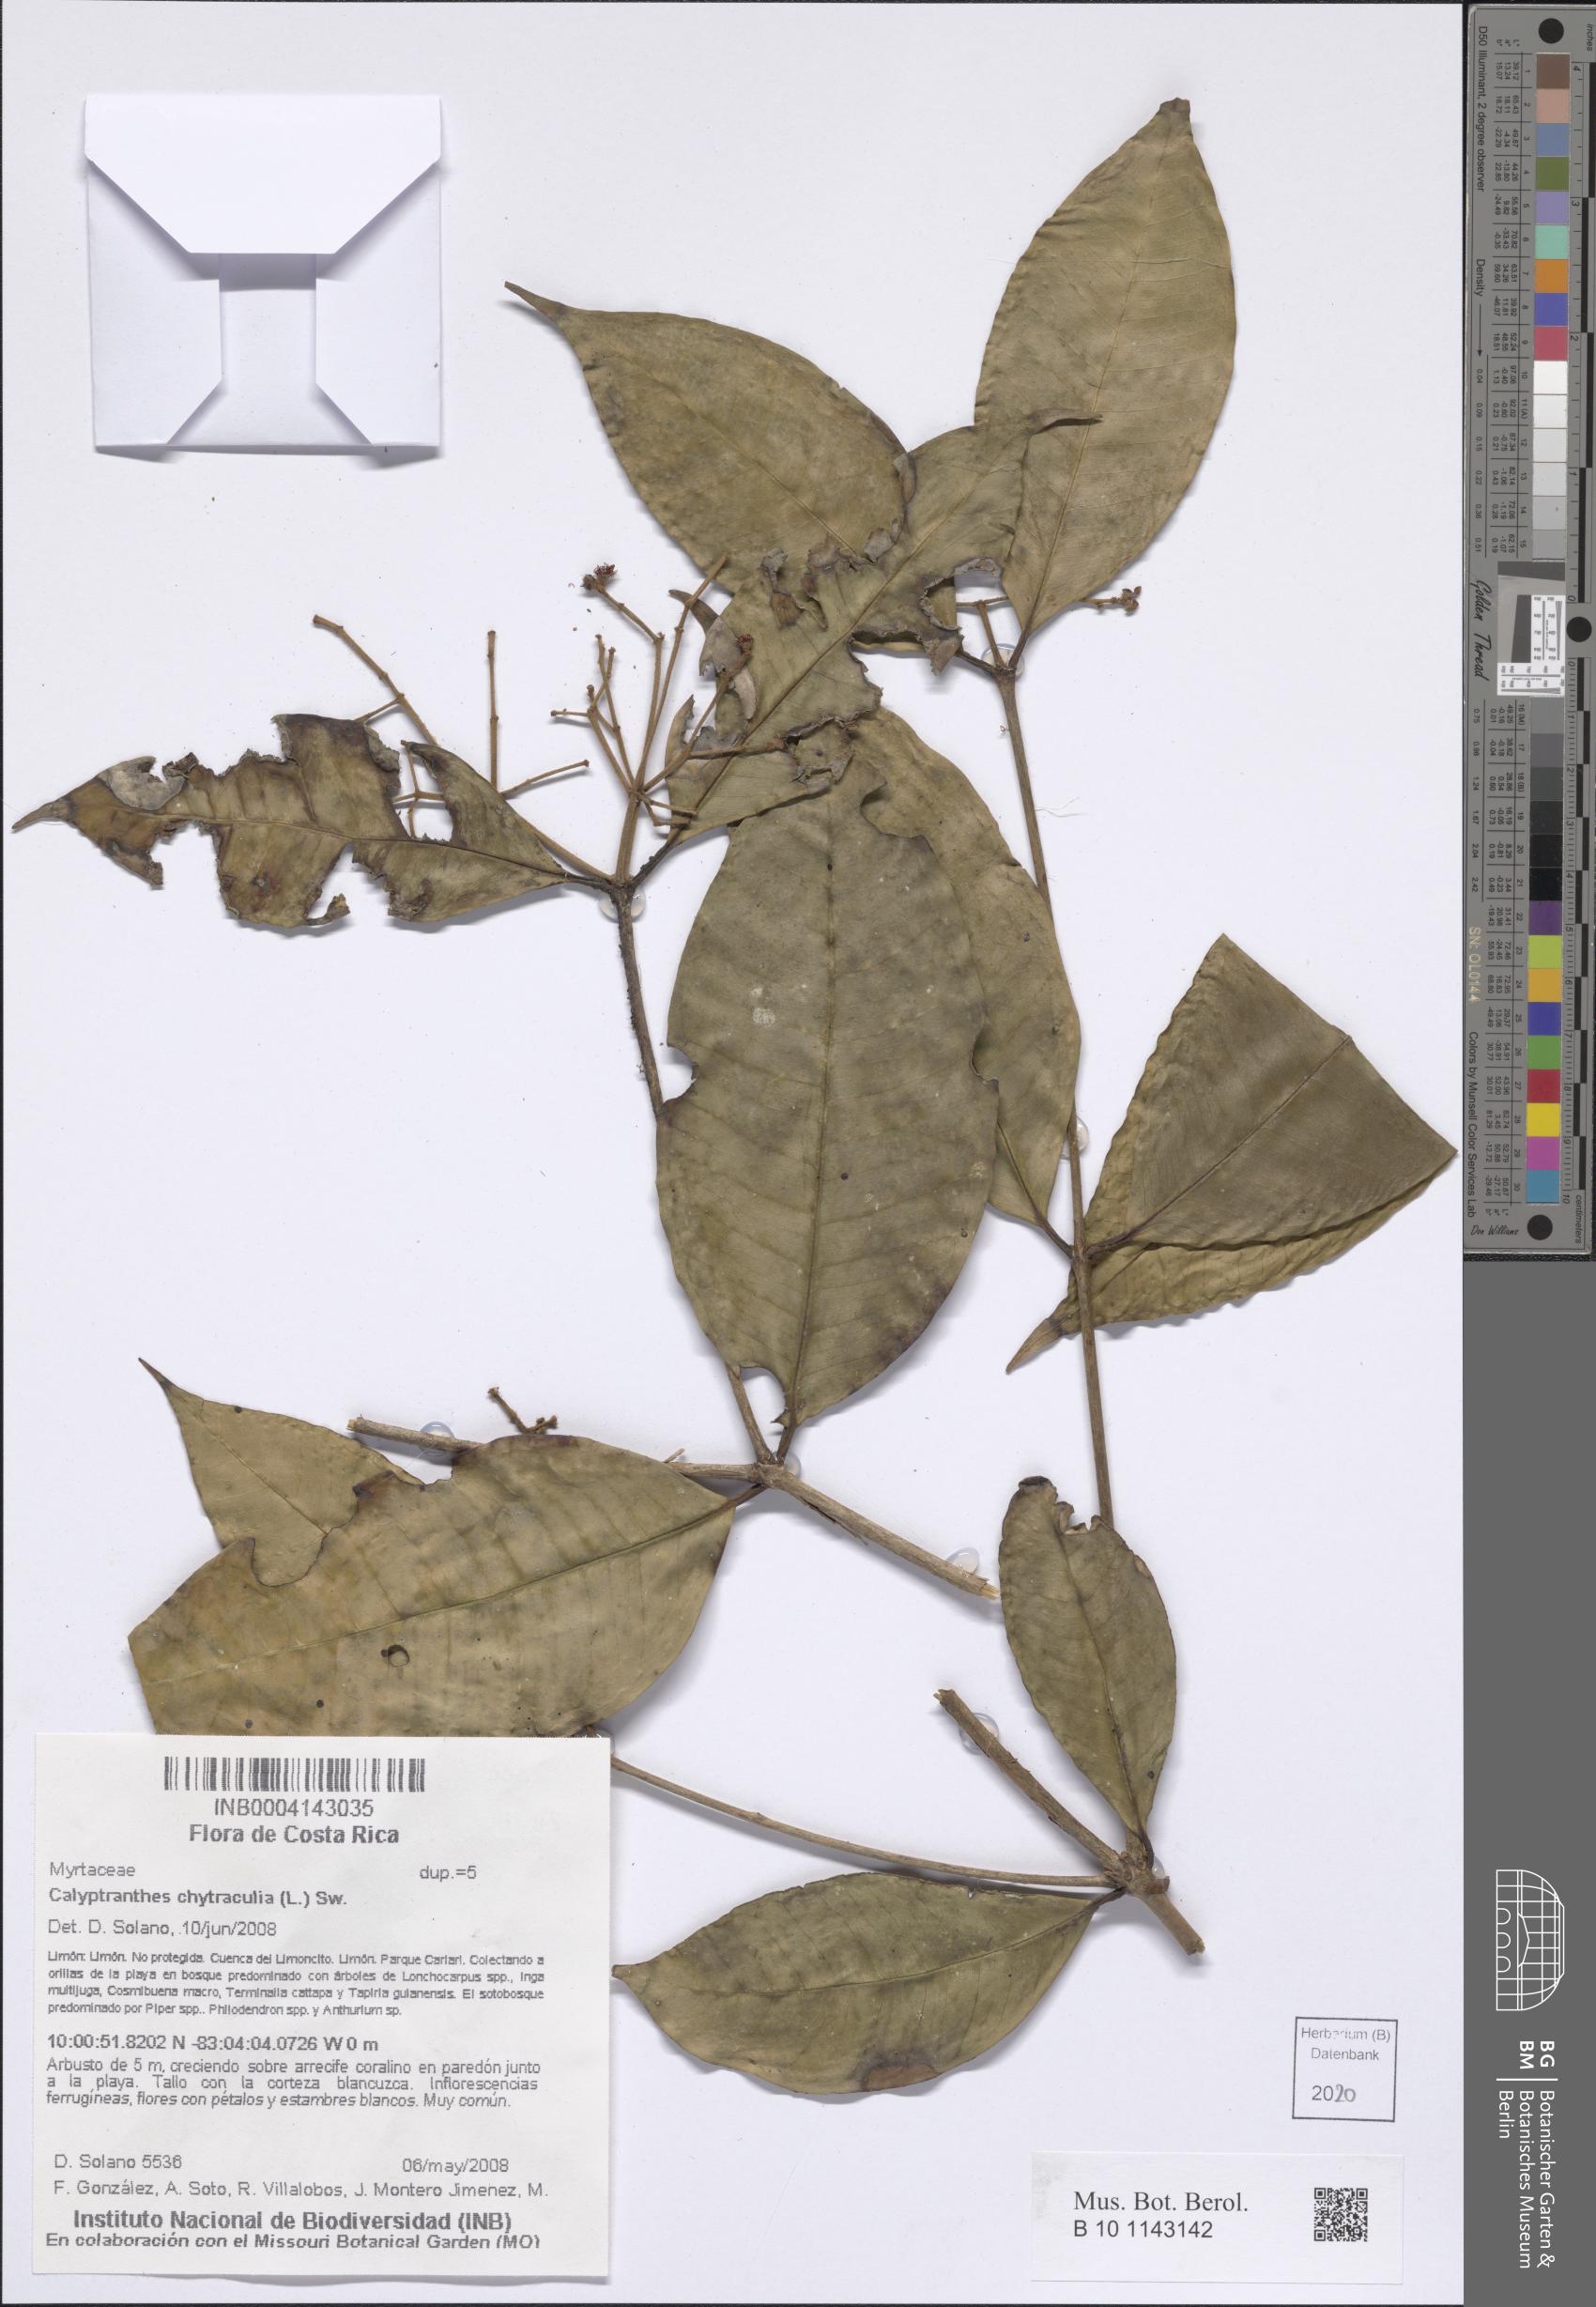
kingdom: Plantae
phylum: Tracheophyta
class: Magnoliopsida
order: Myrtales
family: Myrtaceae
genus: Myrcia
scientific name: Myrcia chytraculia
